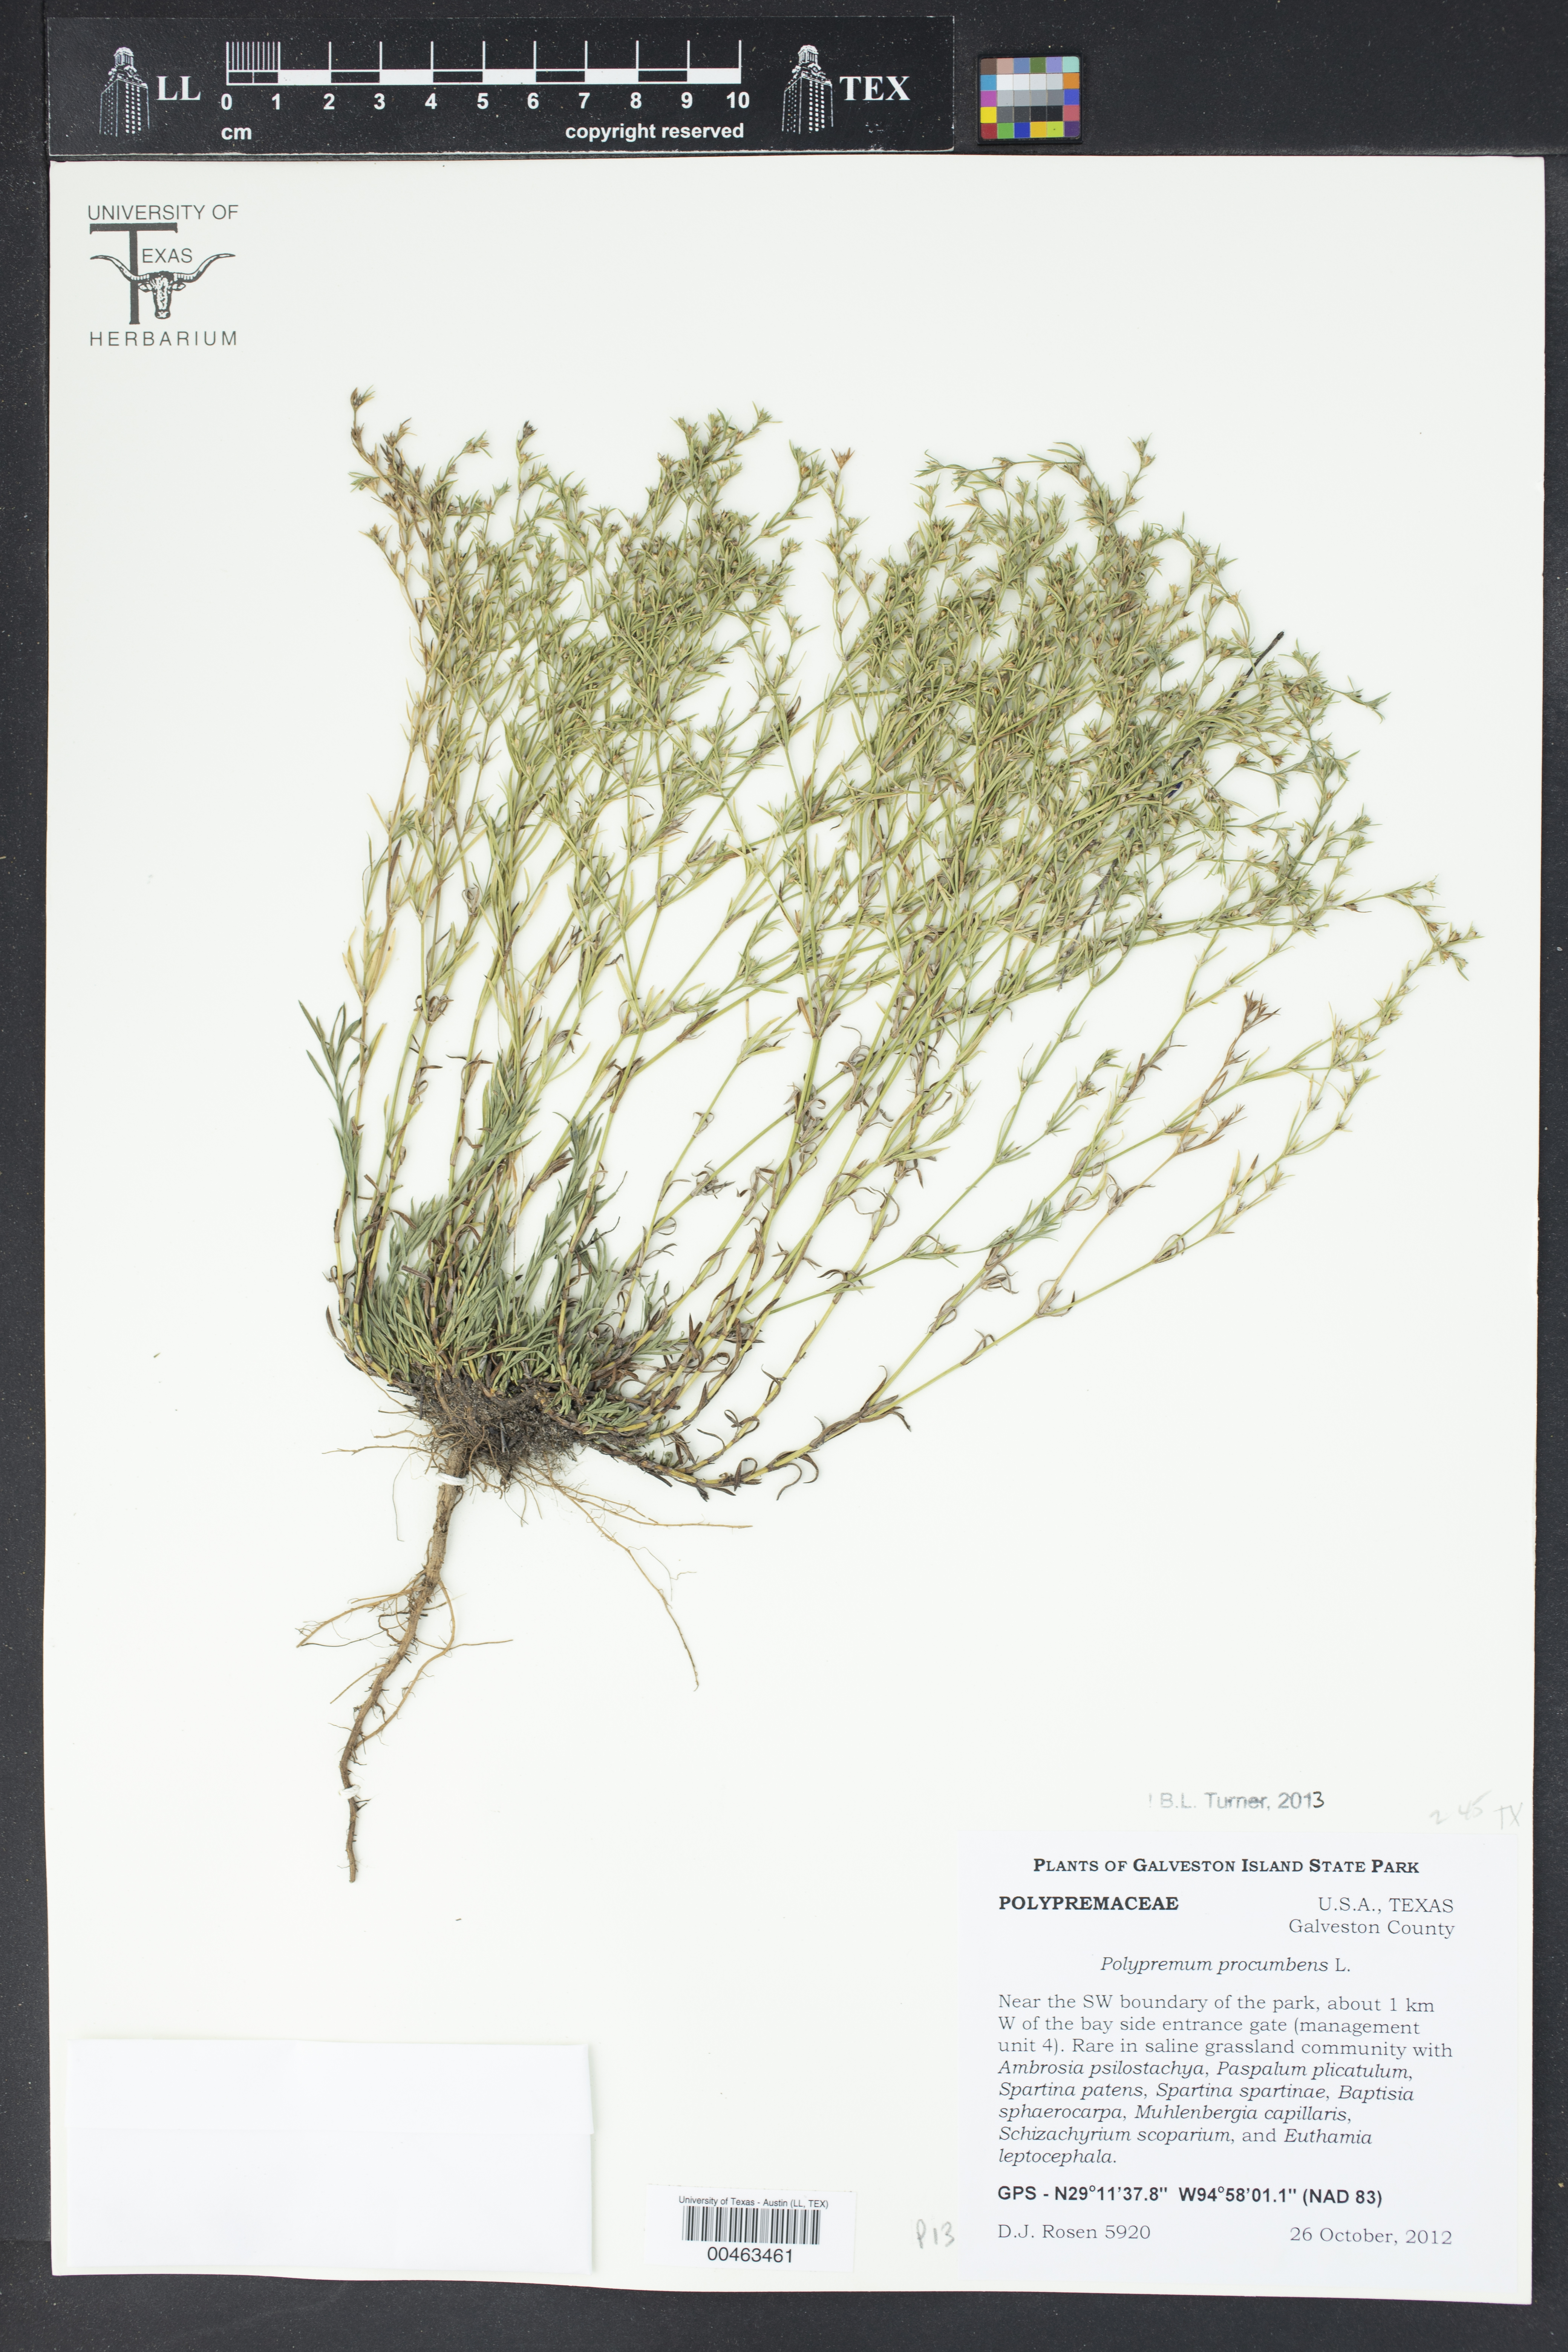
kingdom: Plantae
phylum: Tracheophyta
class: Magnoliopsida
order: Lamiales
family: Tetrachondraceae
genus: Polypremum
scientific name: Polypremum procumbens
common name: Juniper-leaf
